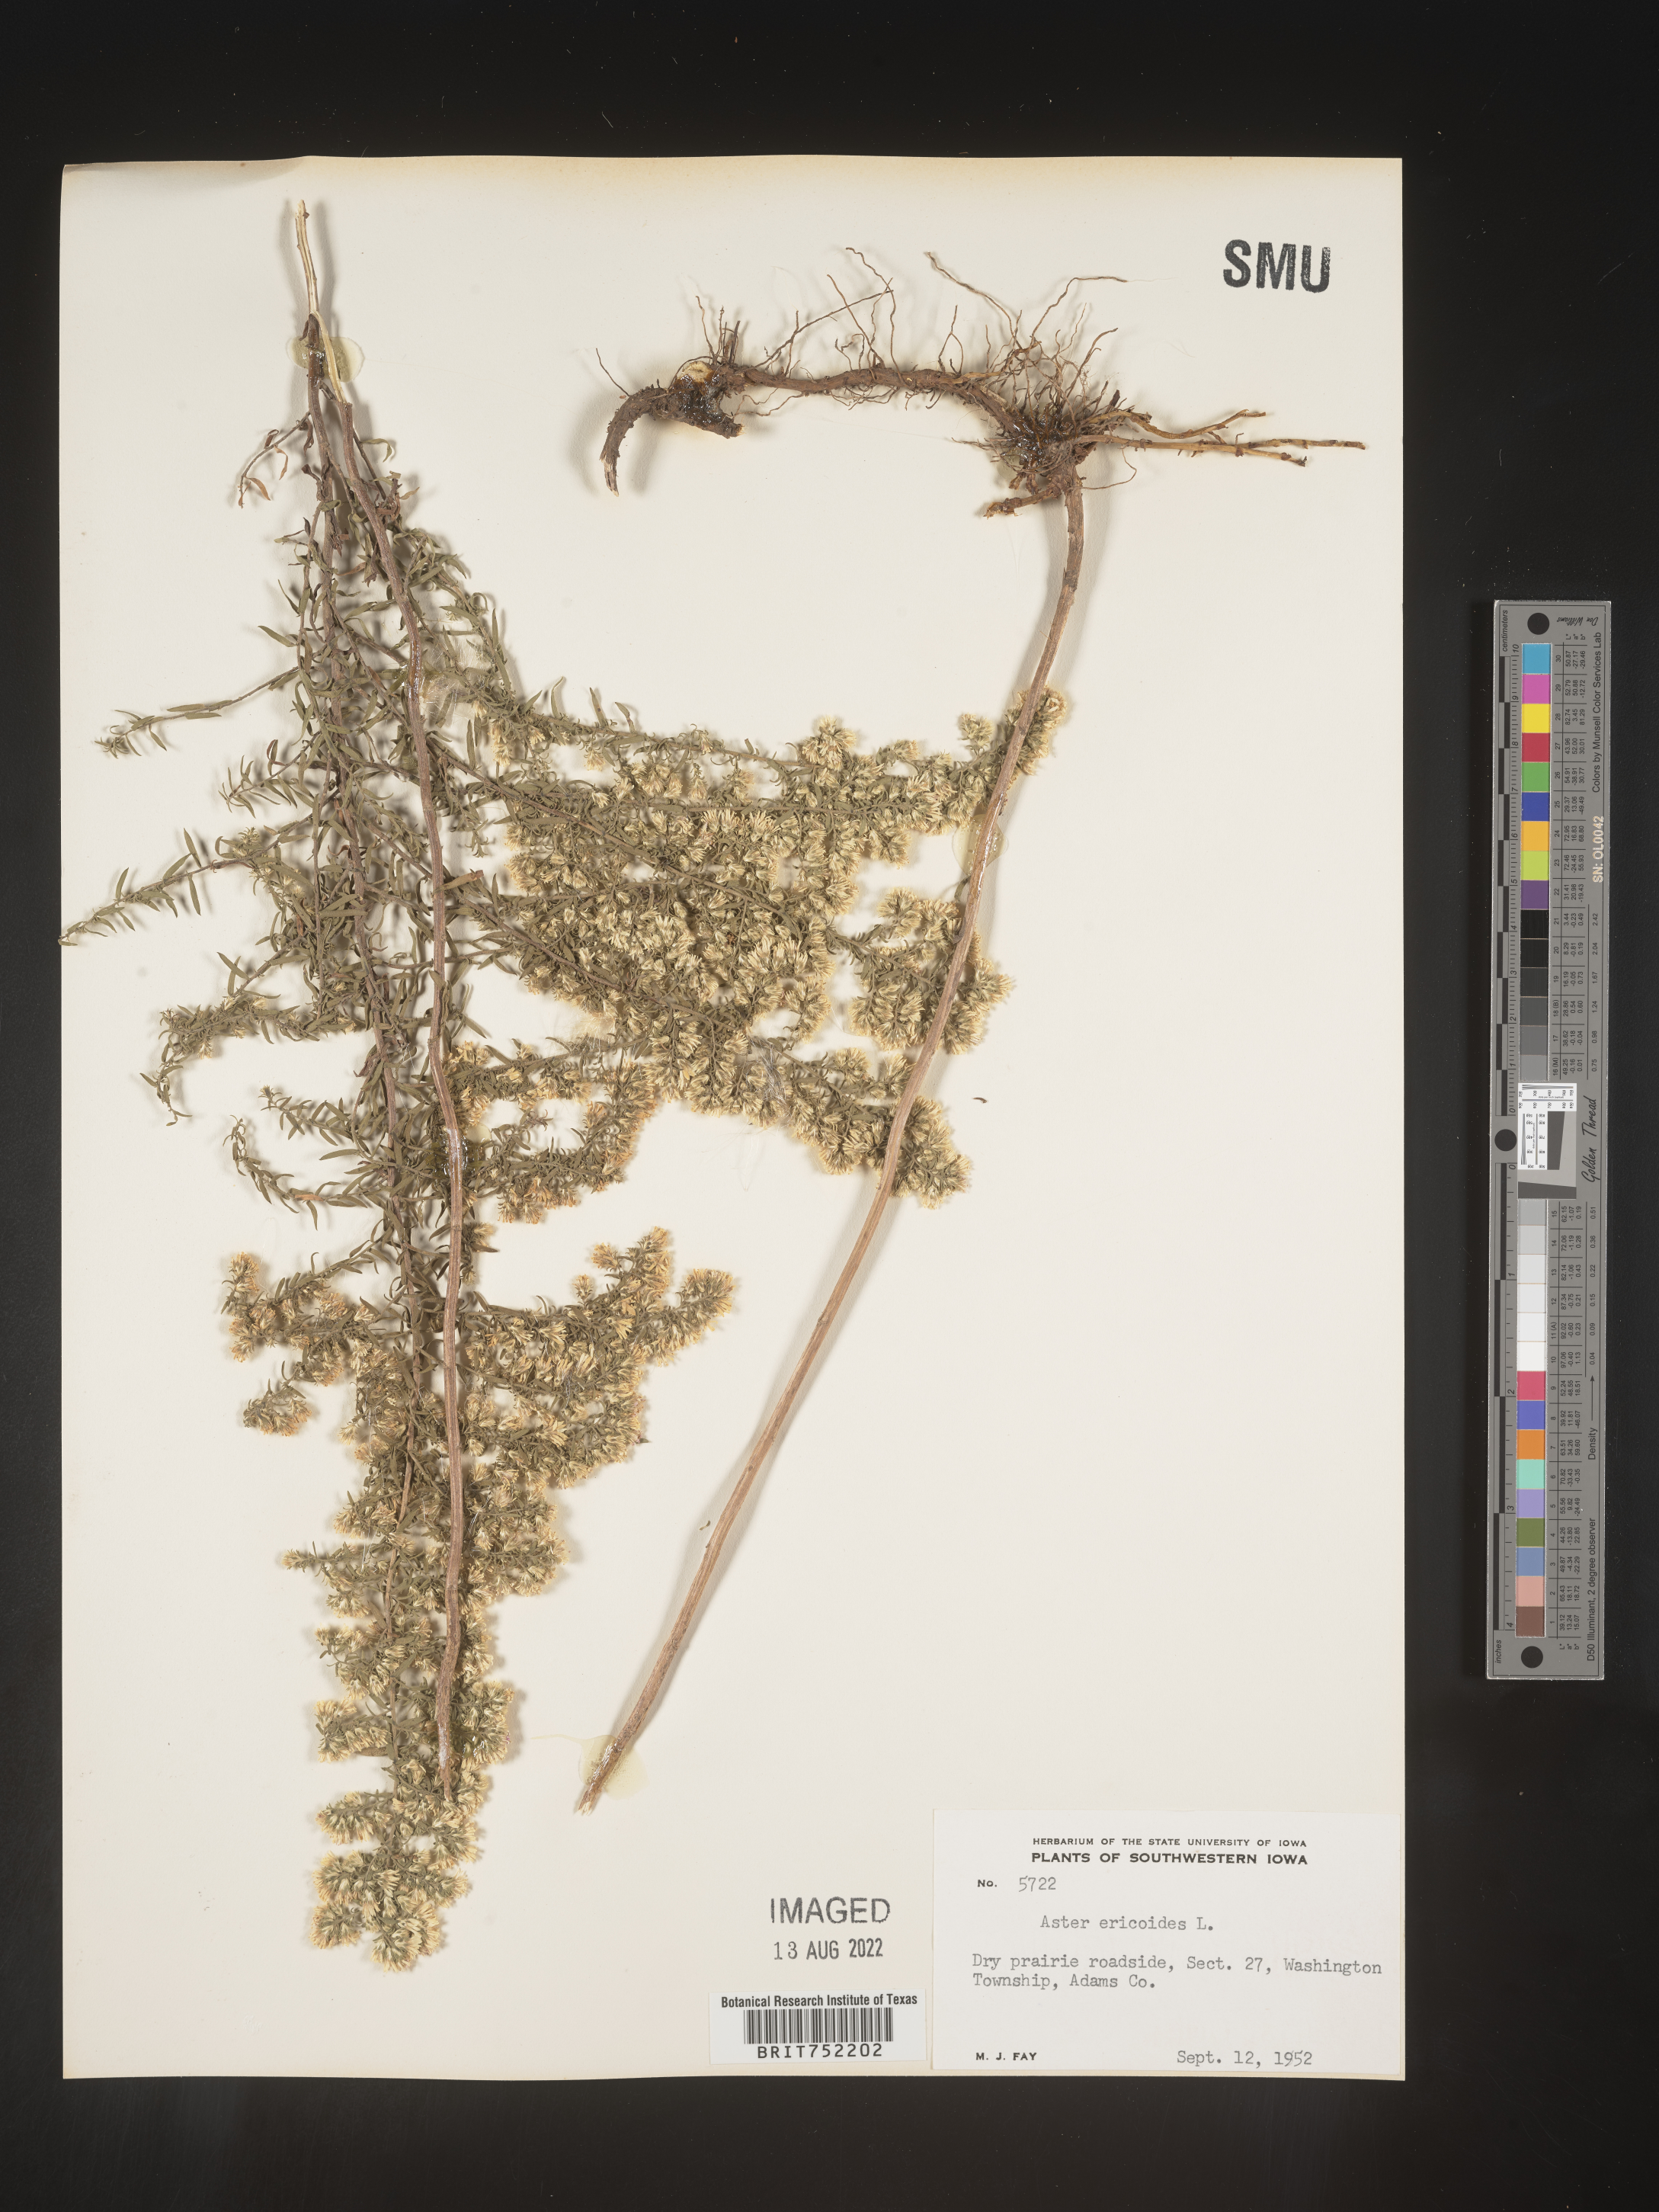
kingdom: Plantae
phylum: Tracheophyta
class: Magnoliopsida
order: Asterales
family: Asteraceae
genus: Symphyotrichum
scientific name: Symphyotrichum ericoides
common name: Heath aster
